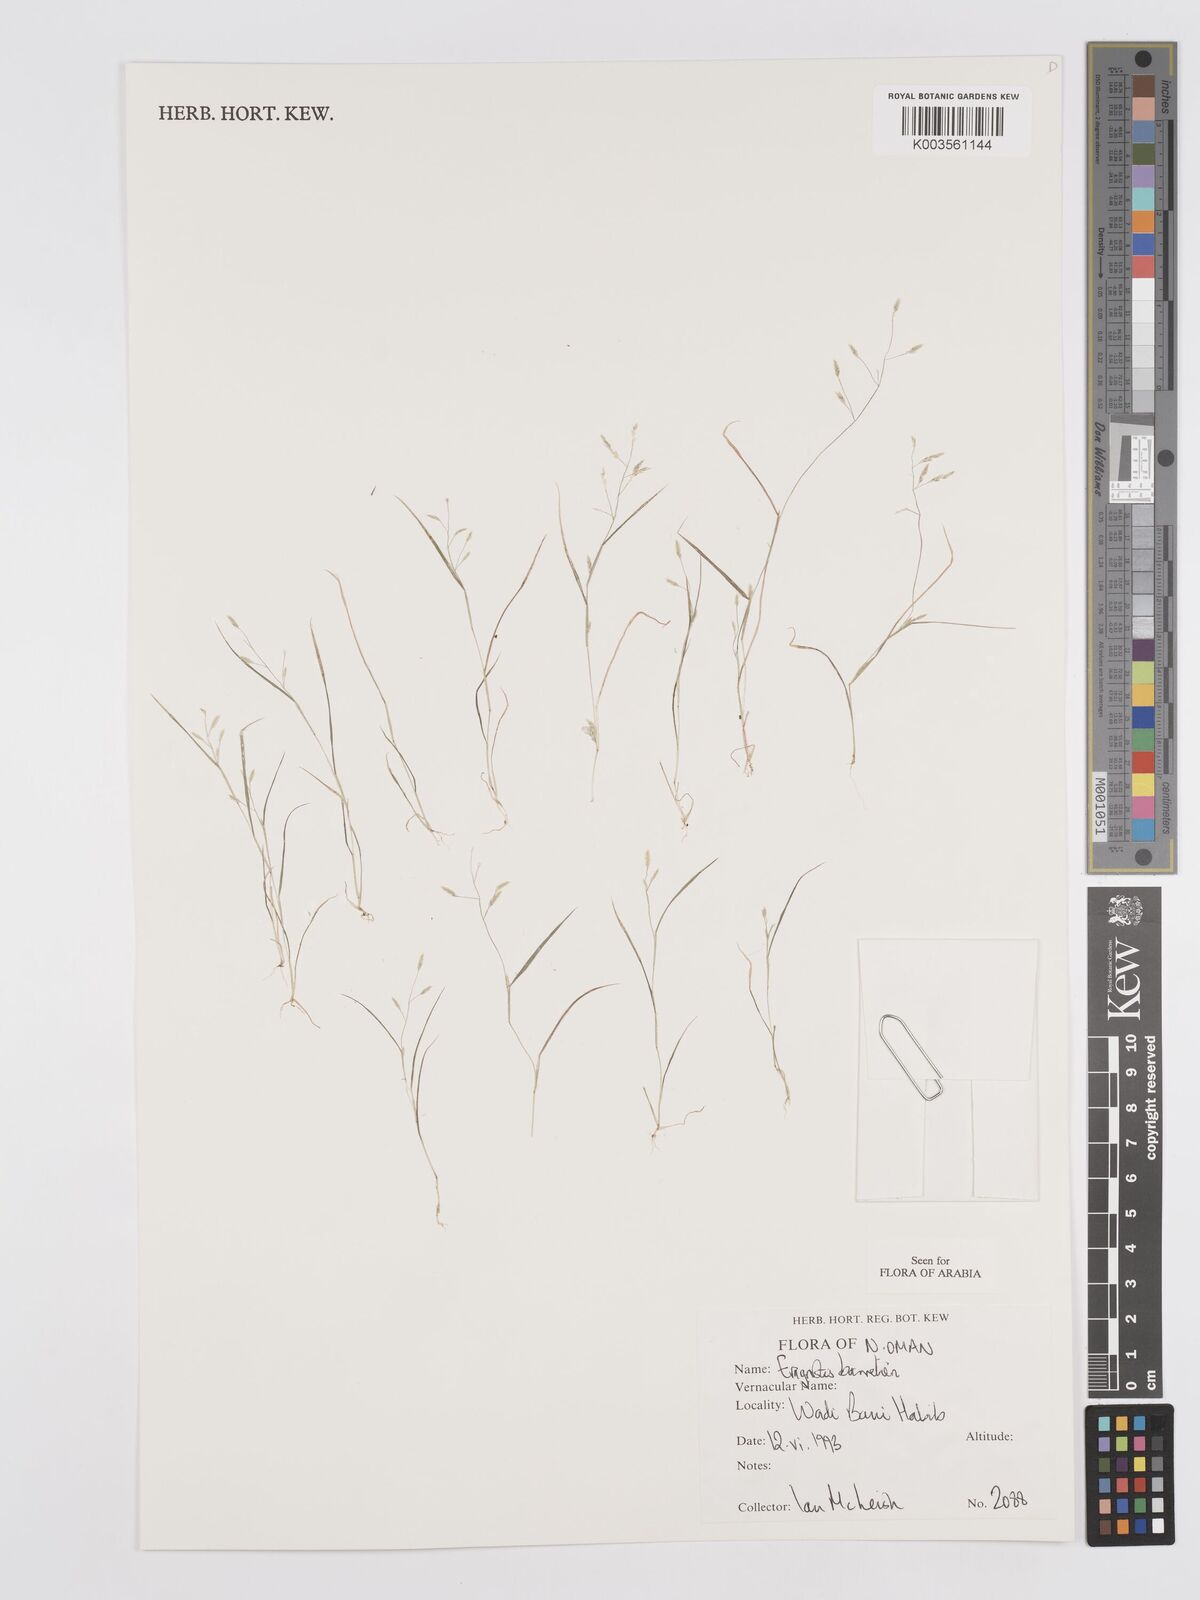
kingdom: Plantae
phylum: Tracheophyta
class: Liliopsida
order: Poales
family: Poaceae
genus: Eragrostis
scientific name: Eragrostis barrelieri
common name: Mediterranean lovegrass
